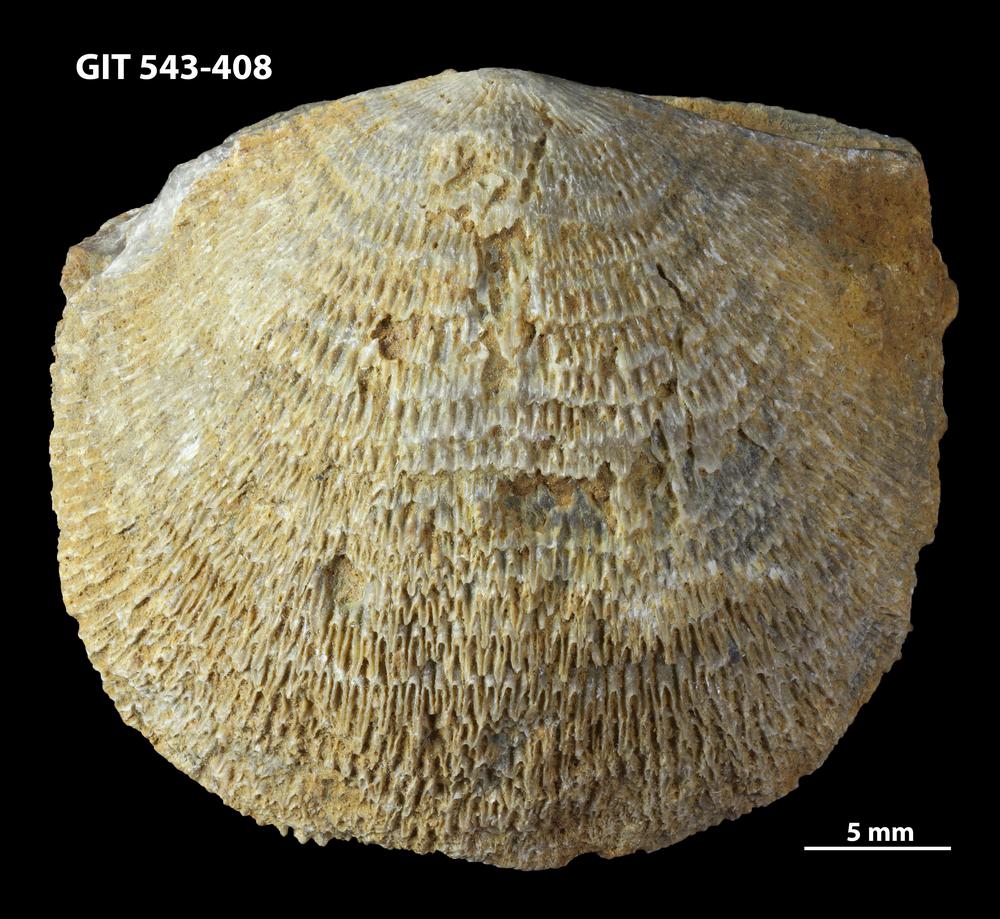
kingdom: Animalia
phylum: Brachiopoda
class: Rhynchonellata
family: Clitambonitidae
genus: Clitambonites
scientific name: Clitambonites squamatus
